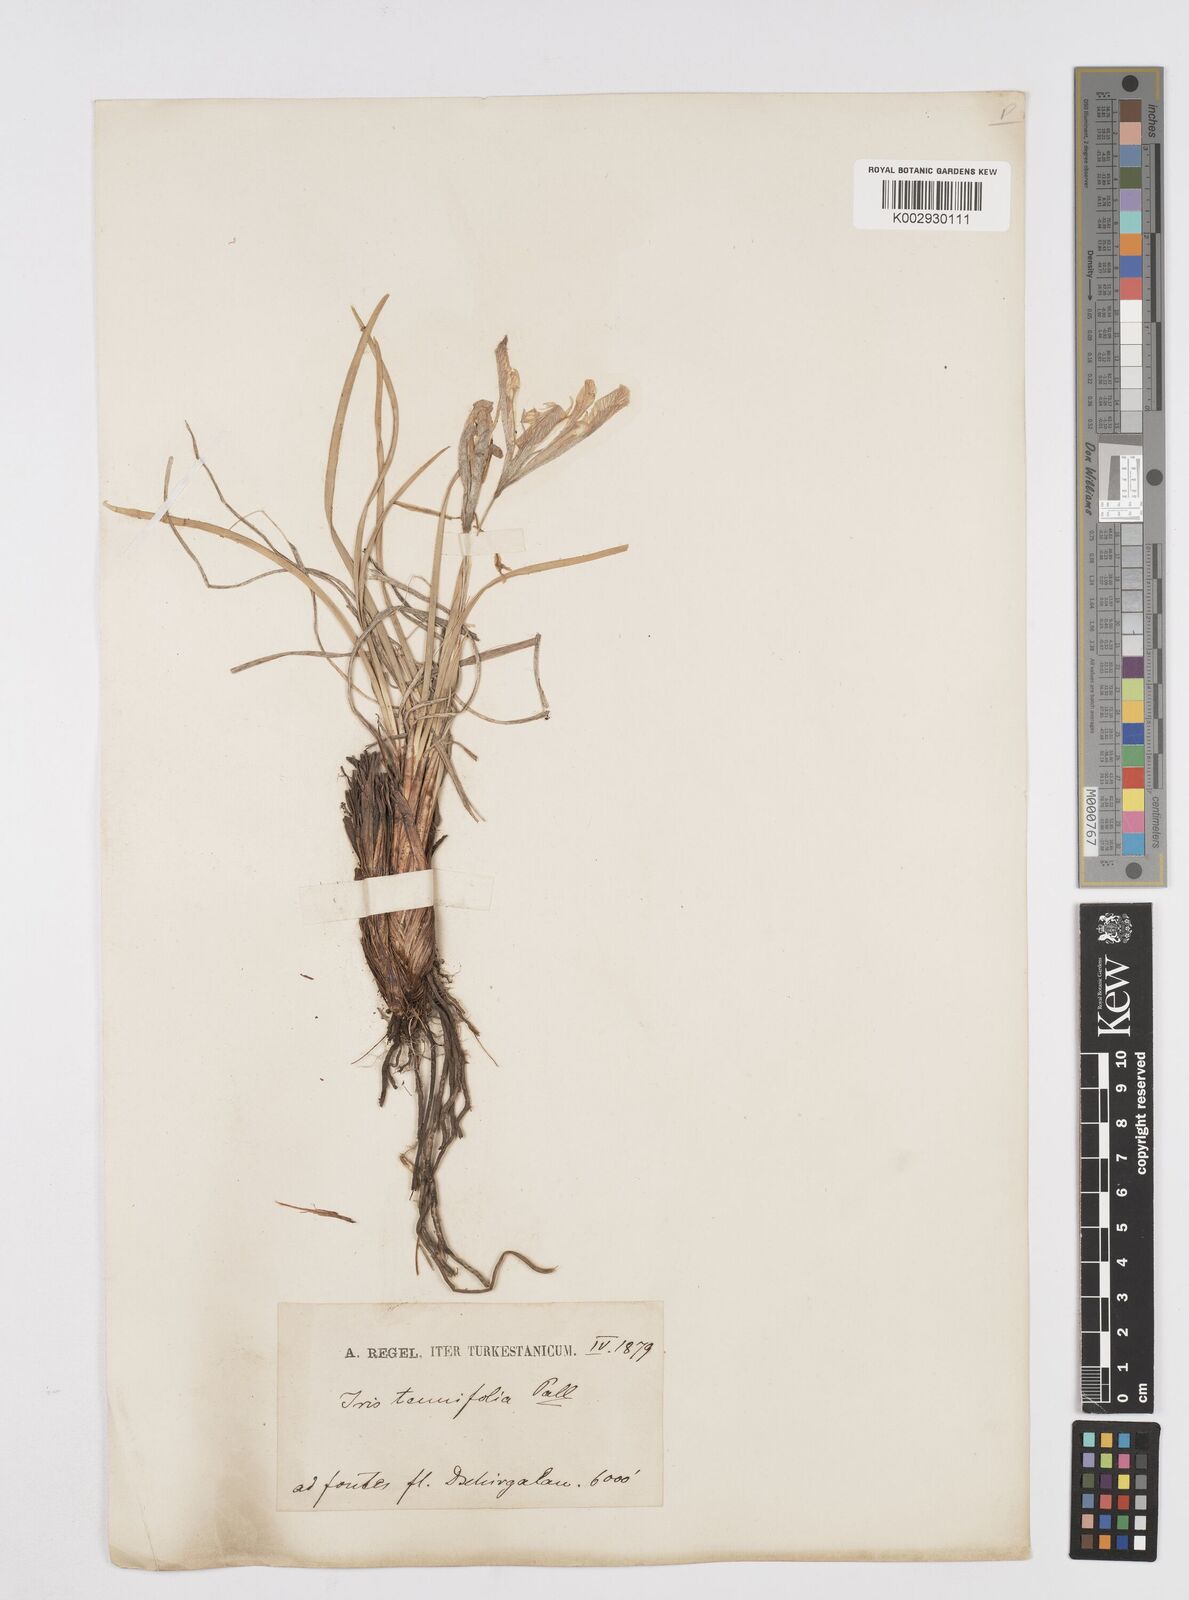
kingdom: Plantae
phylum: Tracheophyta
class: Liliopsida
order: Asparagales
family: Iridaceae
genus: Iris
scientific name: Iris tenuifolia
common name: Slender-leaf iris
